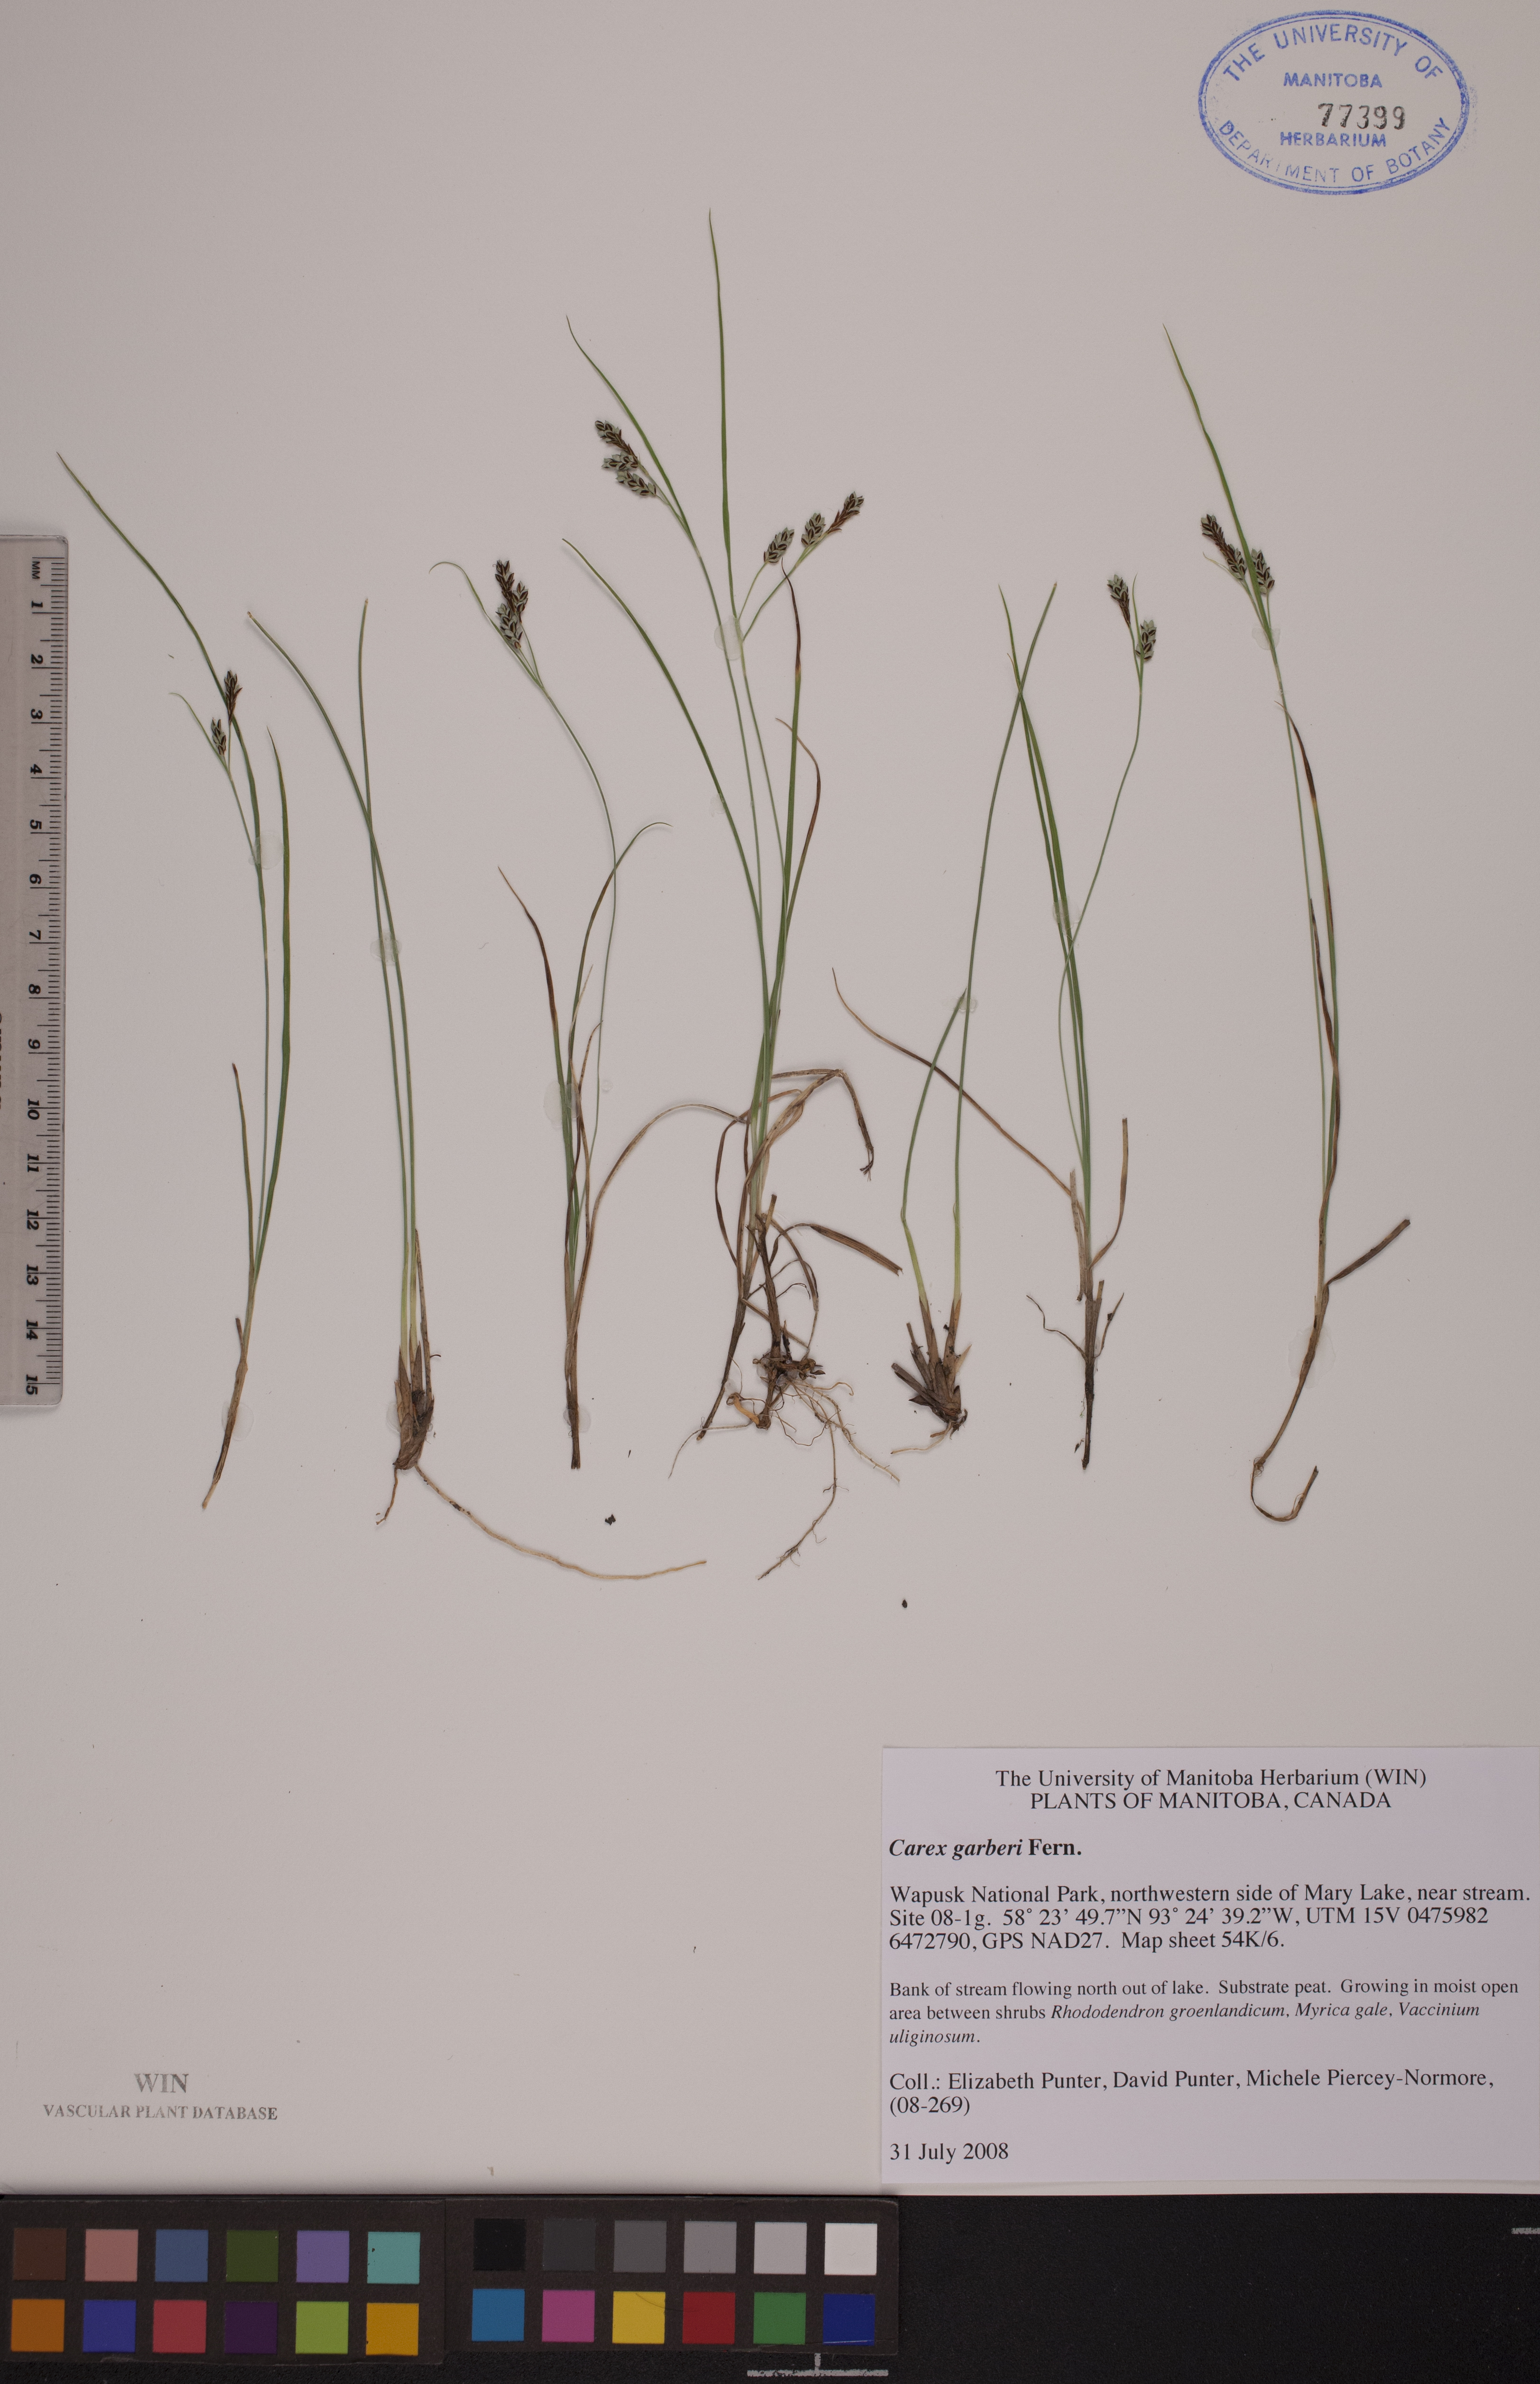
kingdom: Plantae
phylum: Tracheophyta
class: Liliopsida
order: Poales
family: Cyperaceae
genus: Carex
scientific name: Carex garberi
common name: Elk sedge
